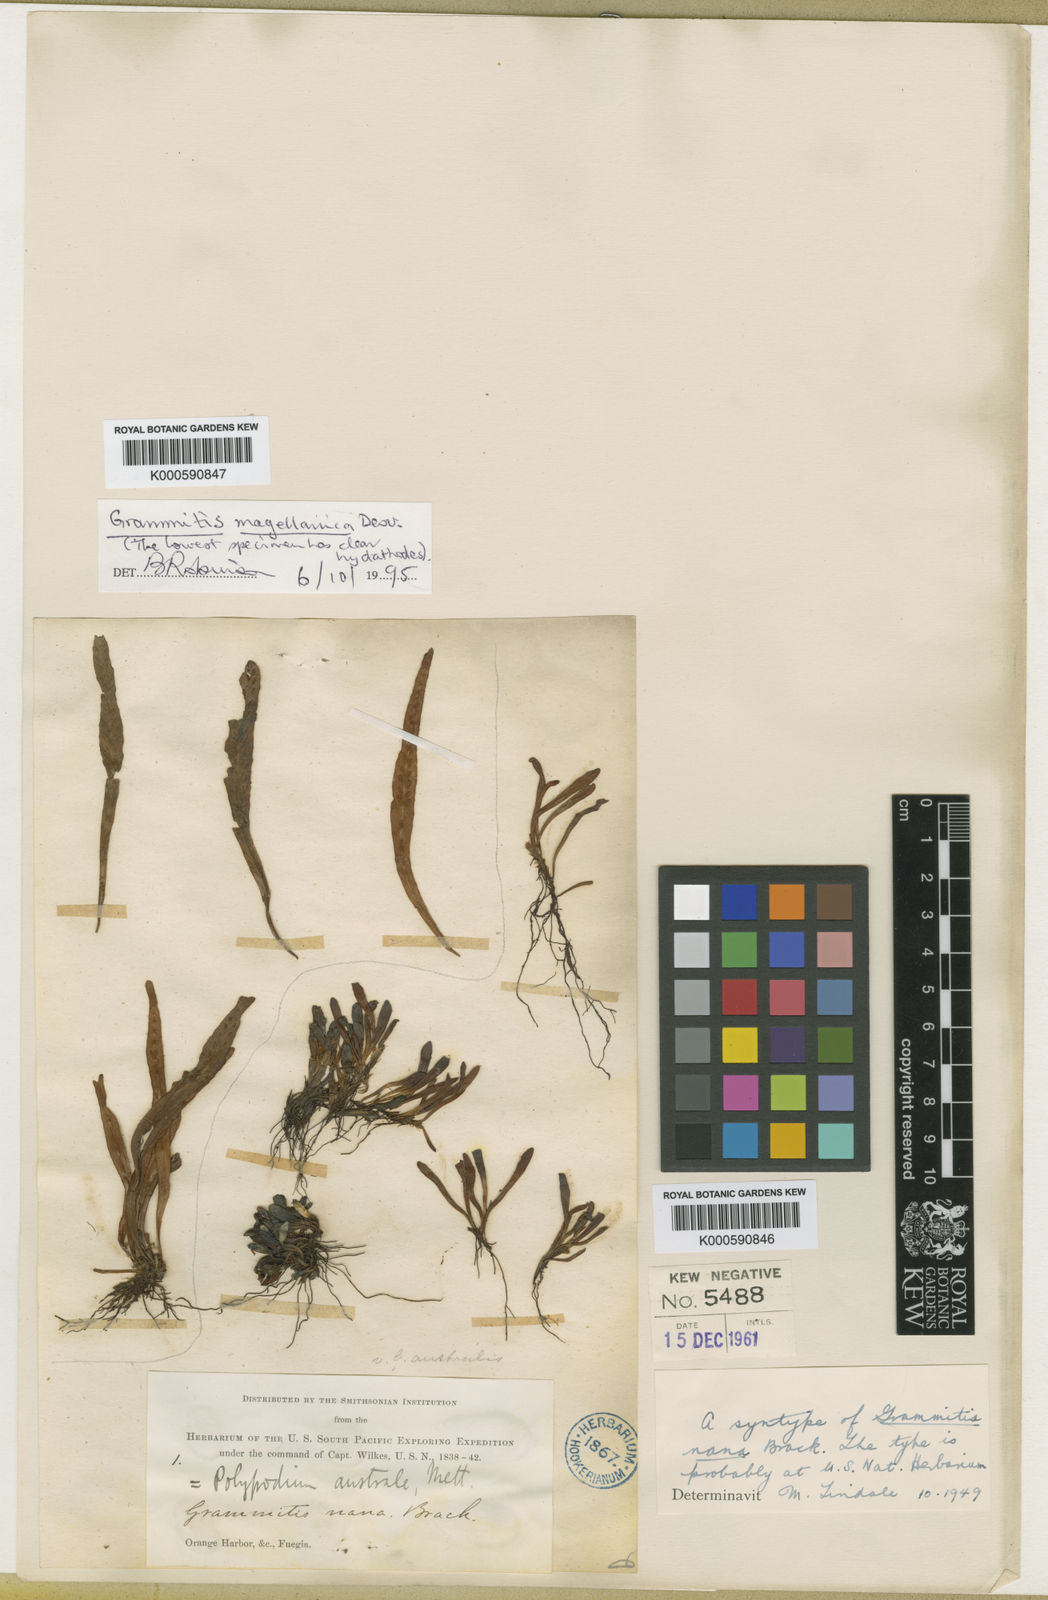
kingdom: Plantae
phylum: Tracheophyta
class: Polypodiopsida
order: Polypodiales
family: Polypodiaceae
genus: Notogrammitis
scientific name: Notogrammitis
